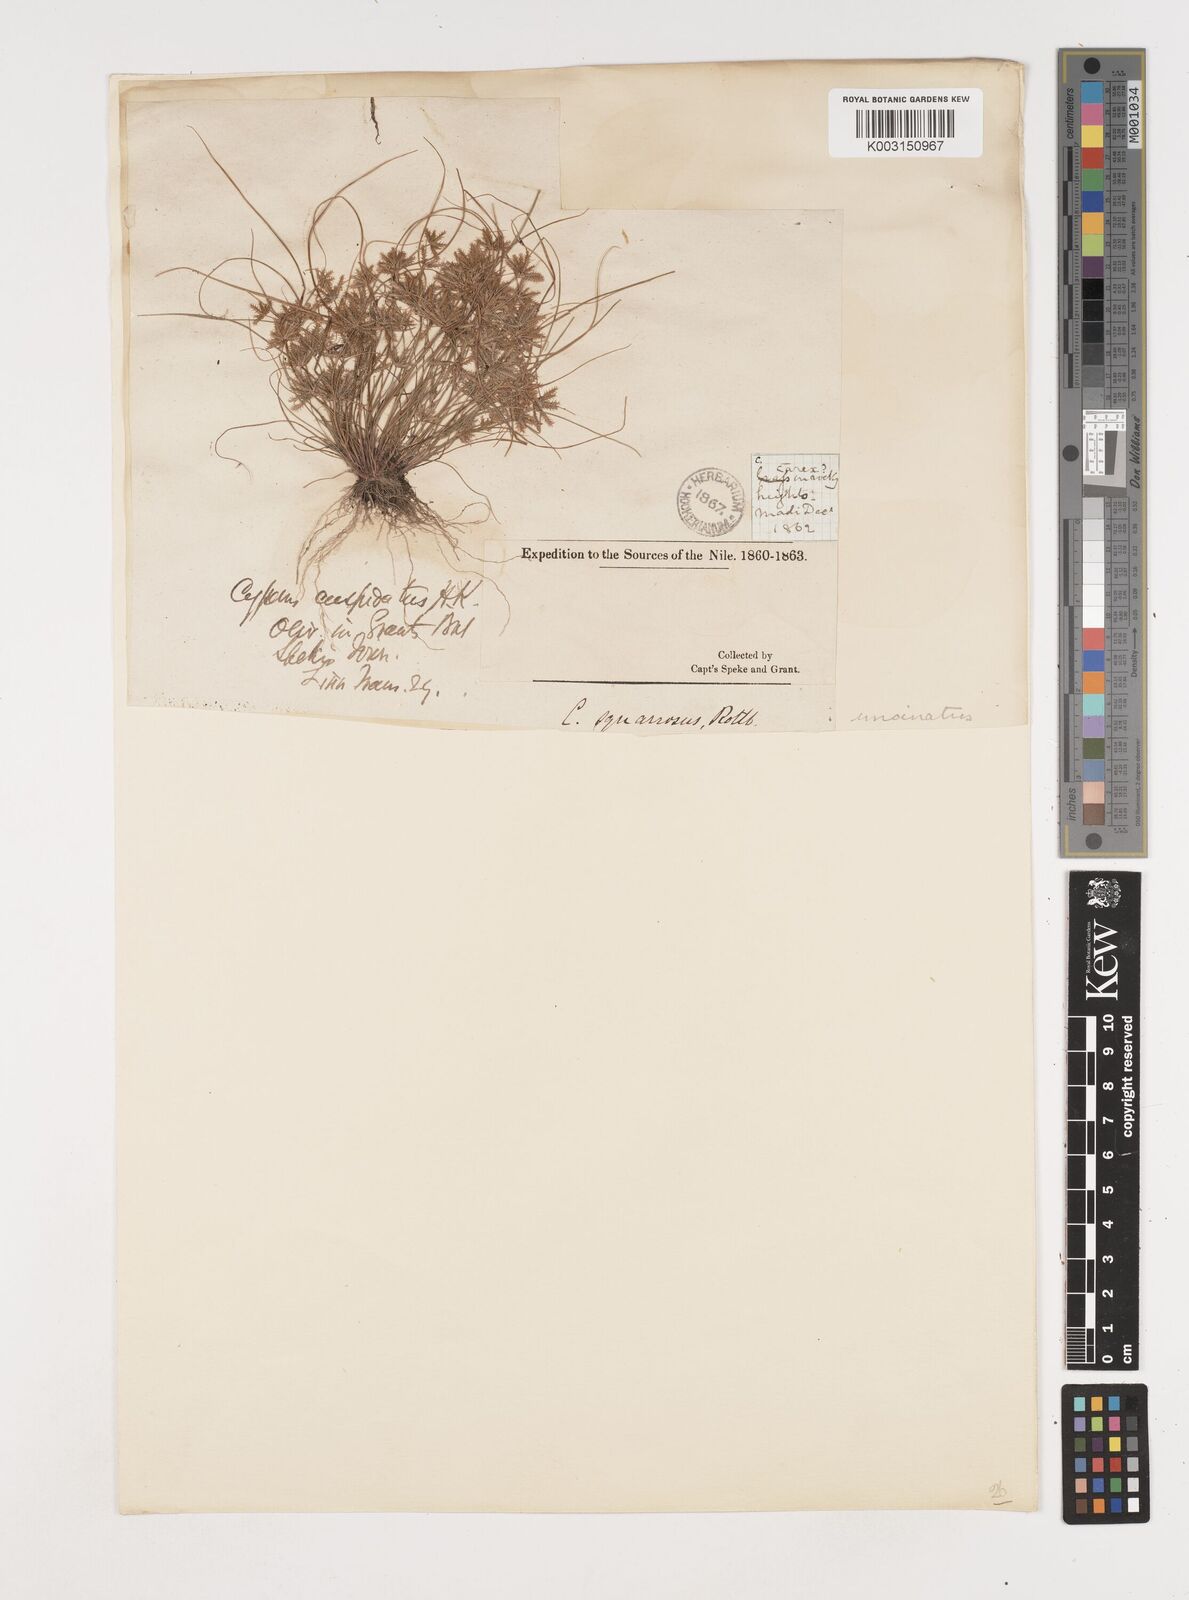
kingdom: Plantae
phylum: Tracheophyta
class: Liliopsida
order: Poales
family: Cyperaceae
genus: Cyperus
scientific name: Cyperus
